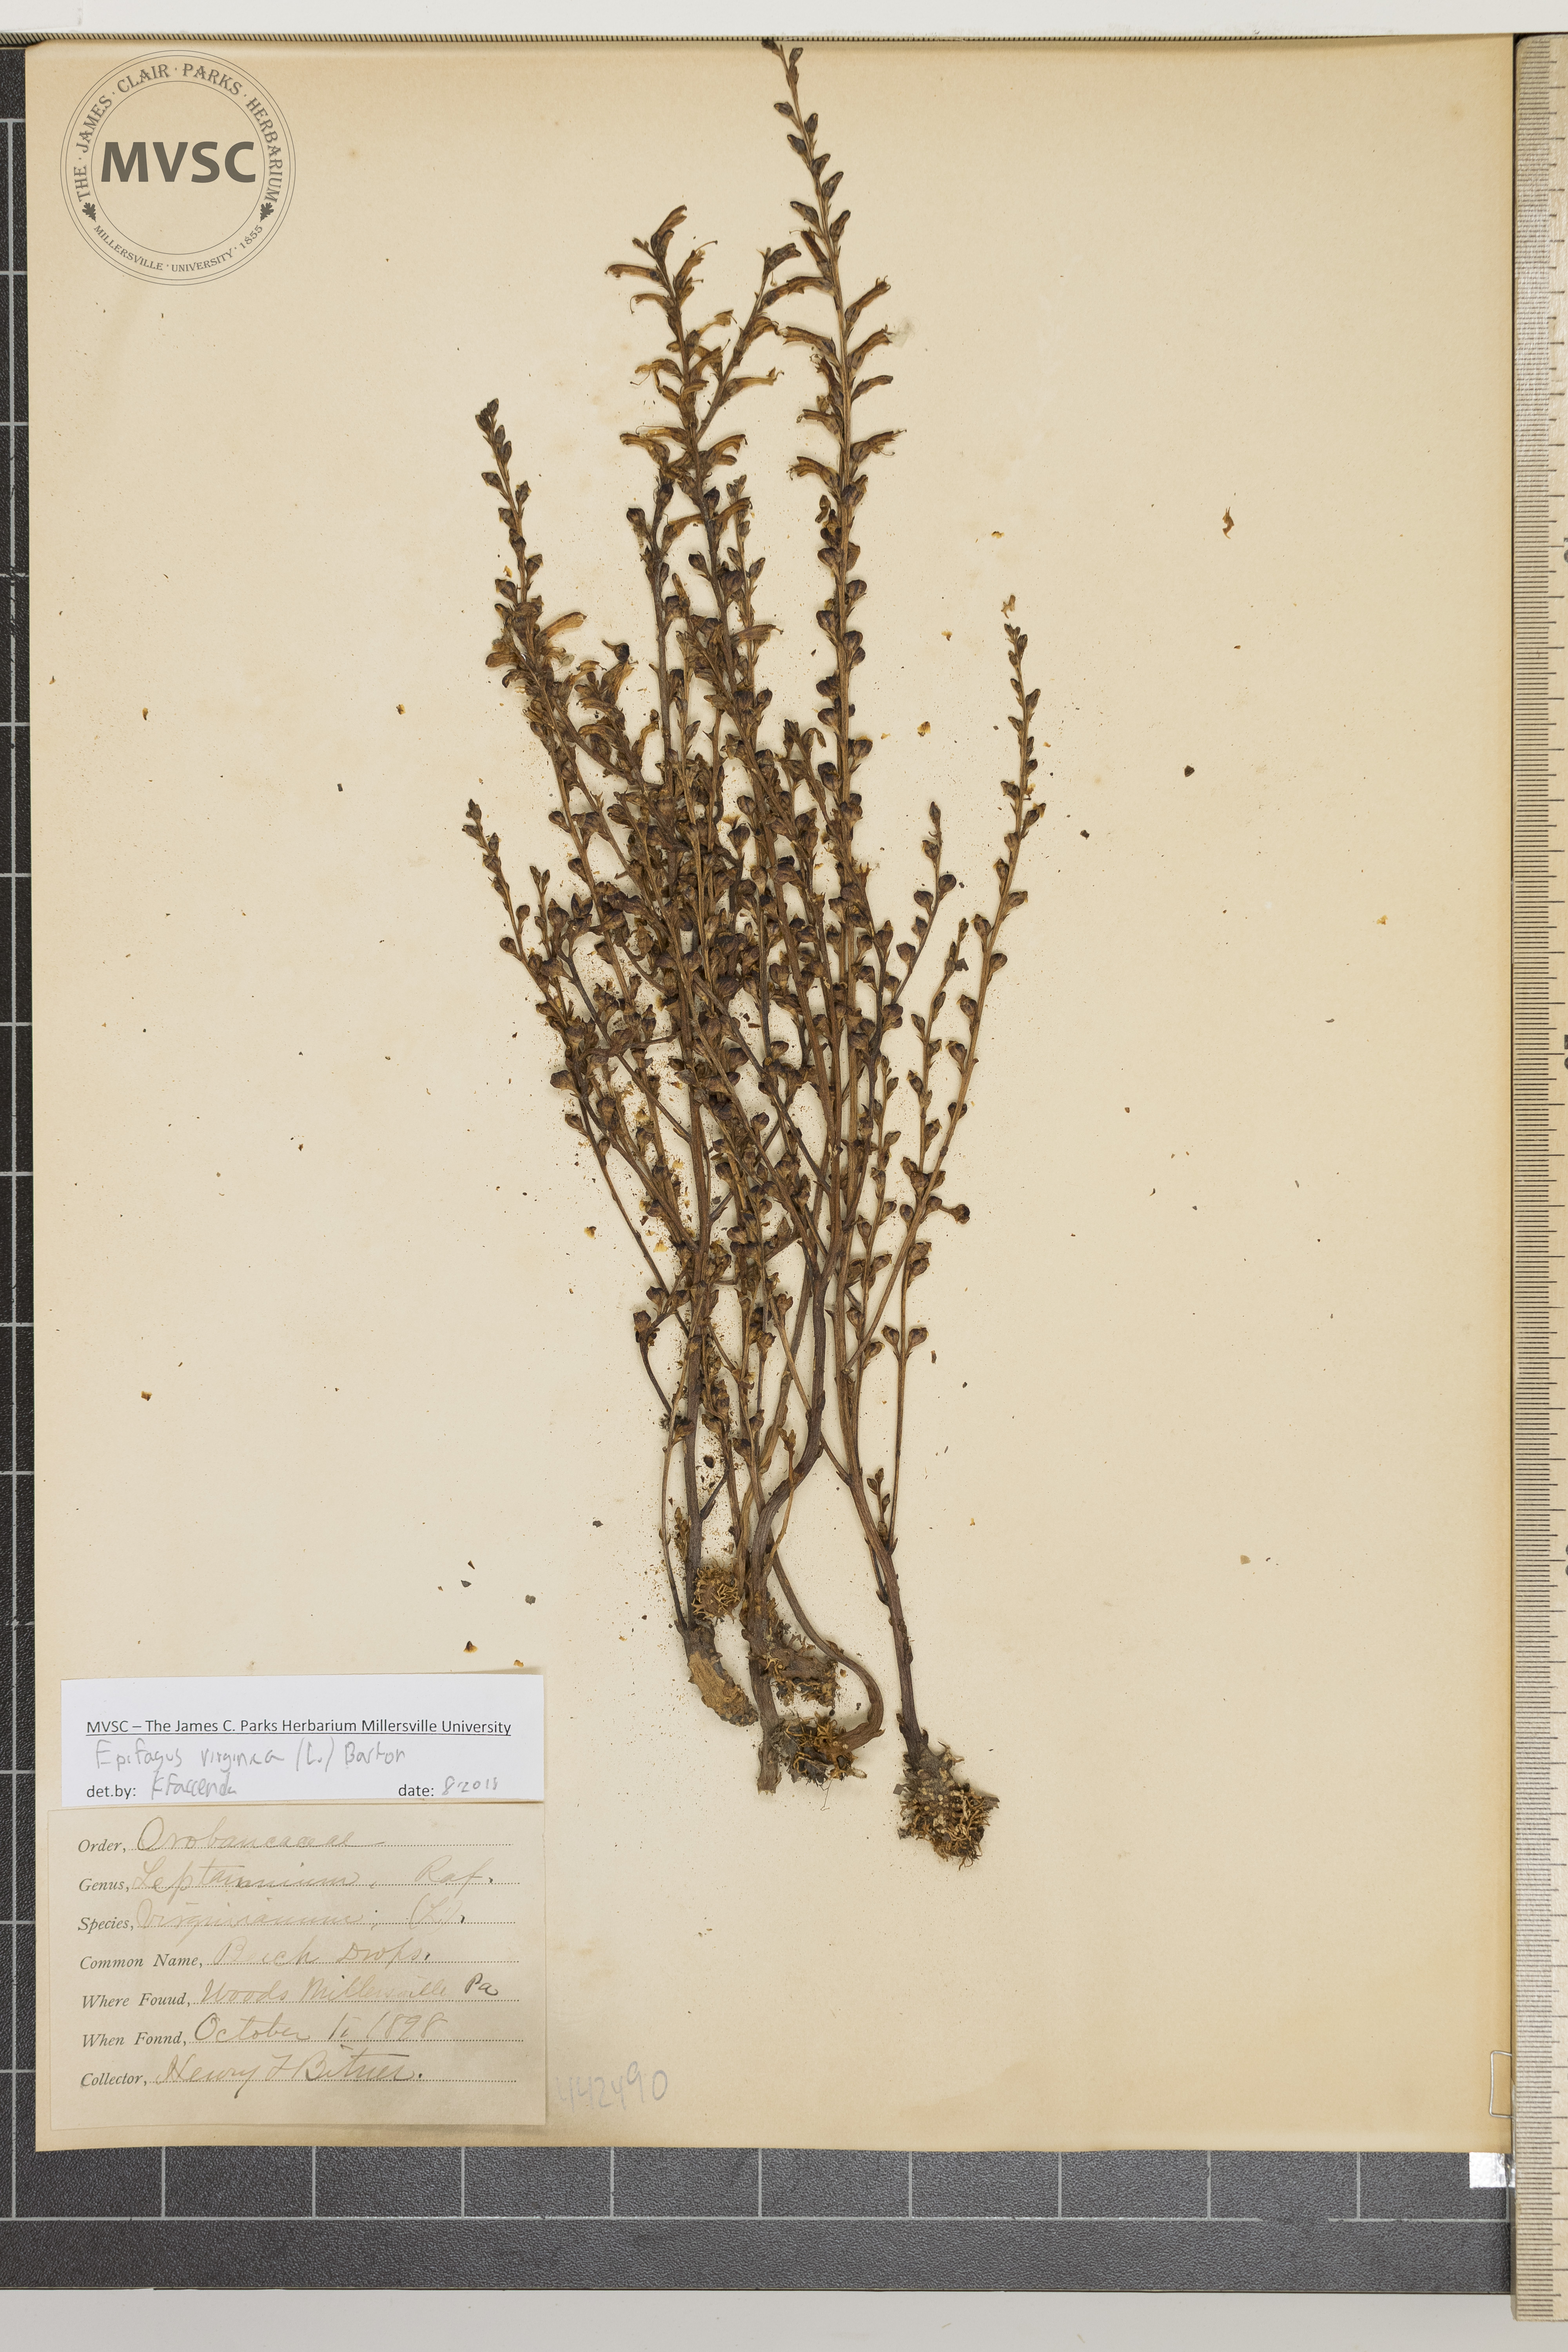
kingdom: Plantae
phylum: Tracheophyta
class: Magnoliopsida
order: Lamiales
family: Orobanchaceae
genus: Epifagus
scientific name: Epifagus virginiana
